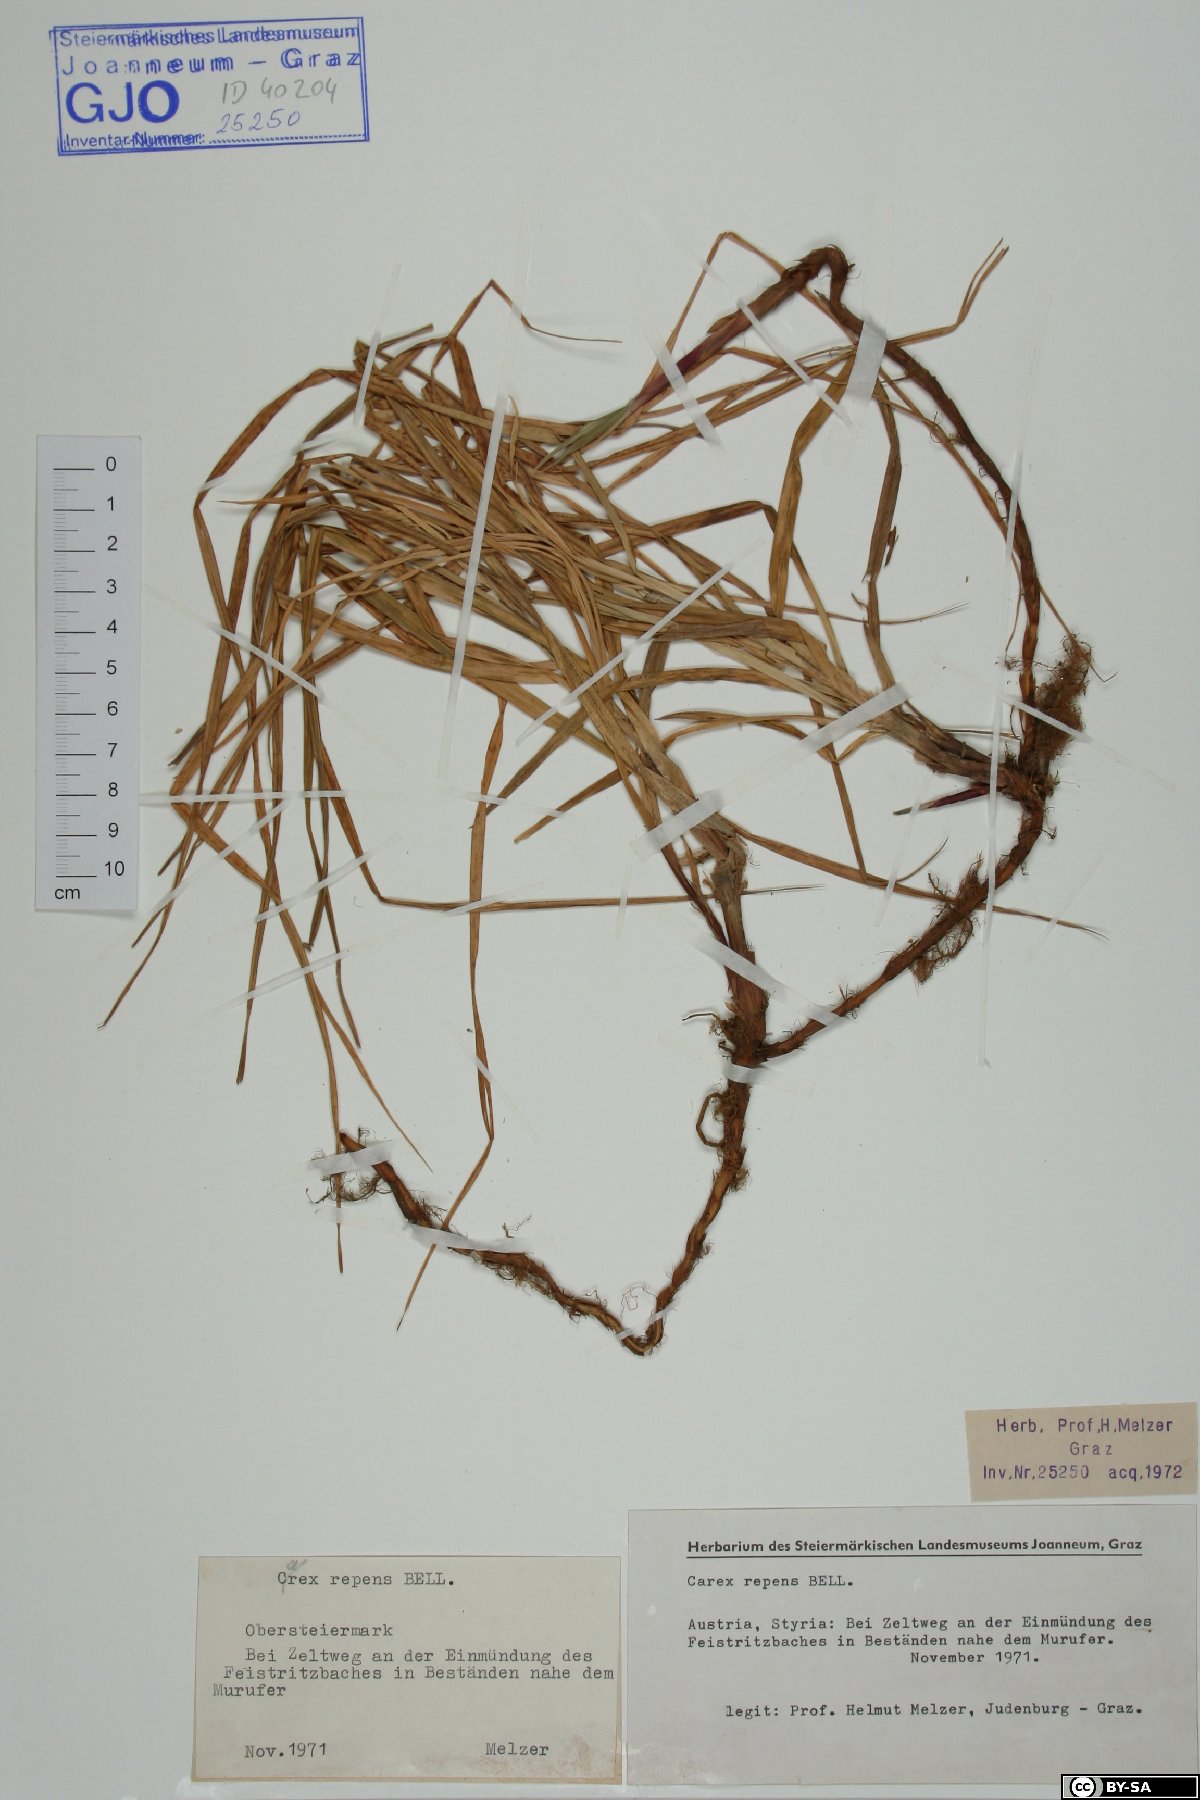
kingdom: Plantae
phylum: Tracheophyta
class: Liliopsida
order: Poales
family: Cyperaceae
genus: Carex
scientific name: Carex repens
